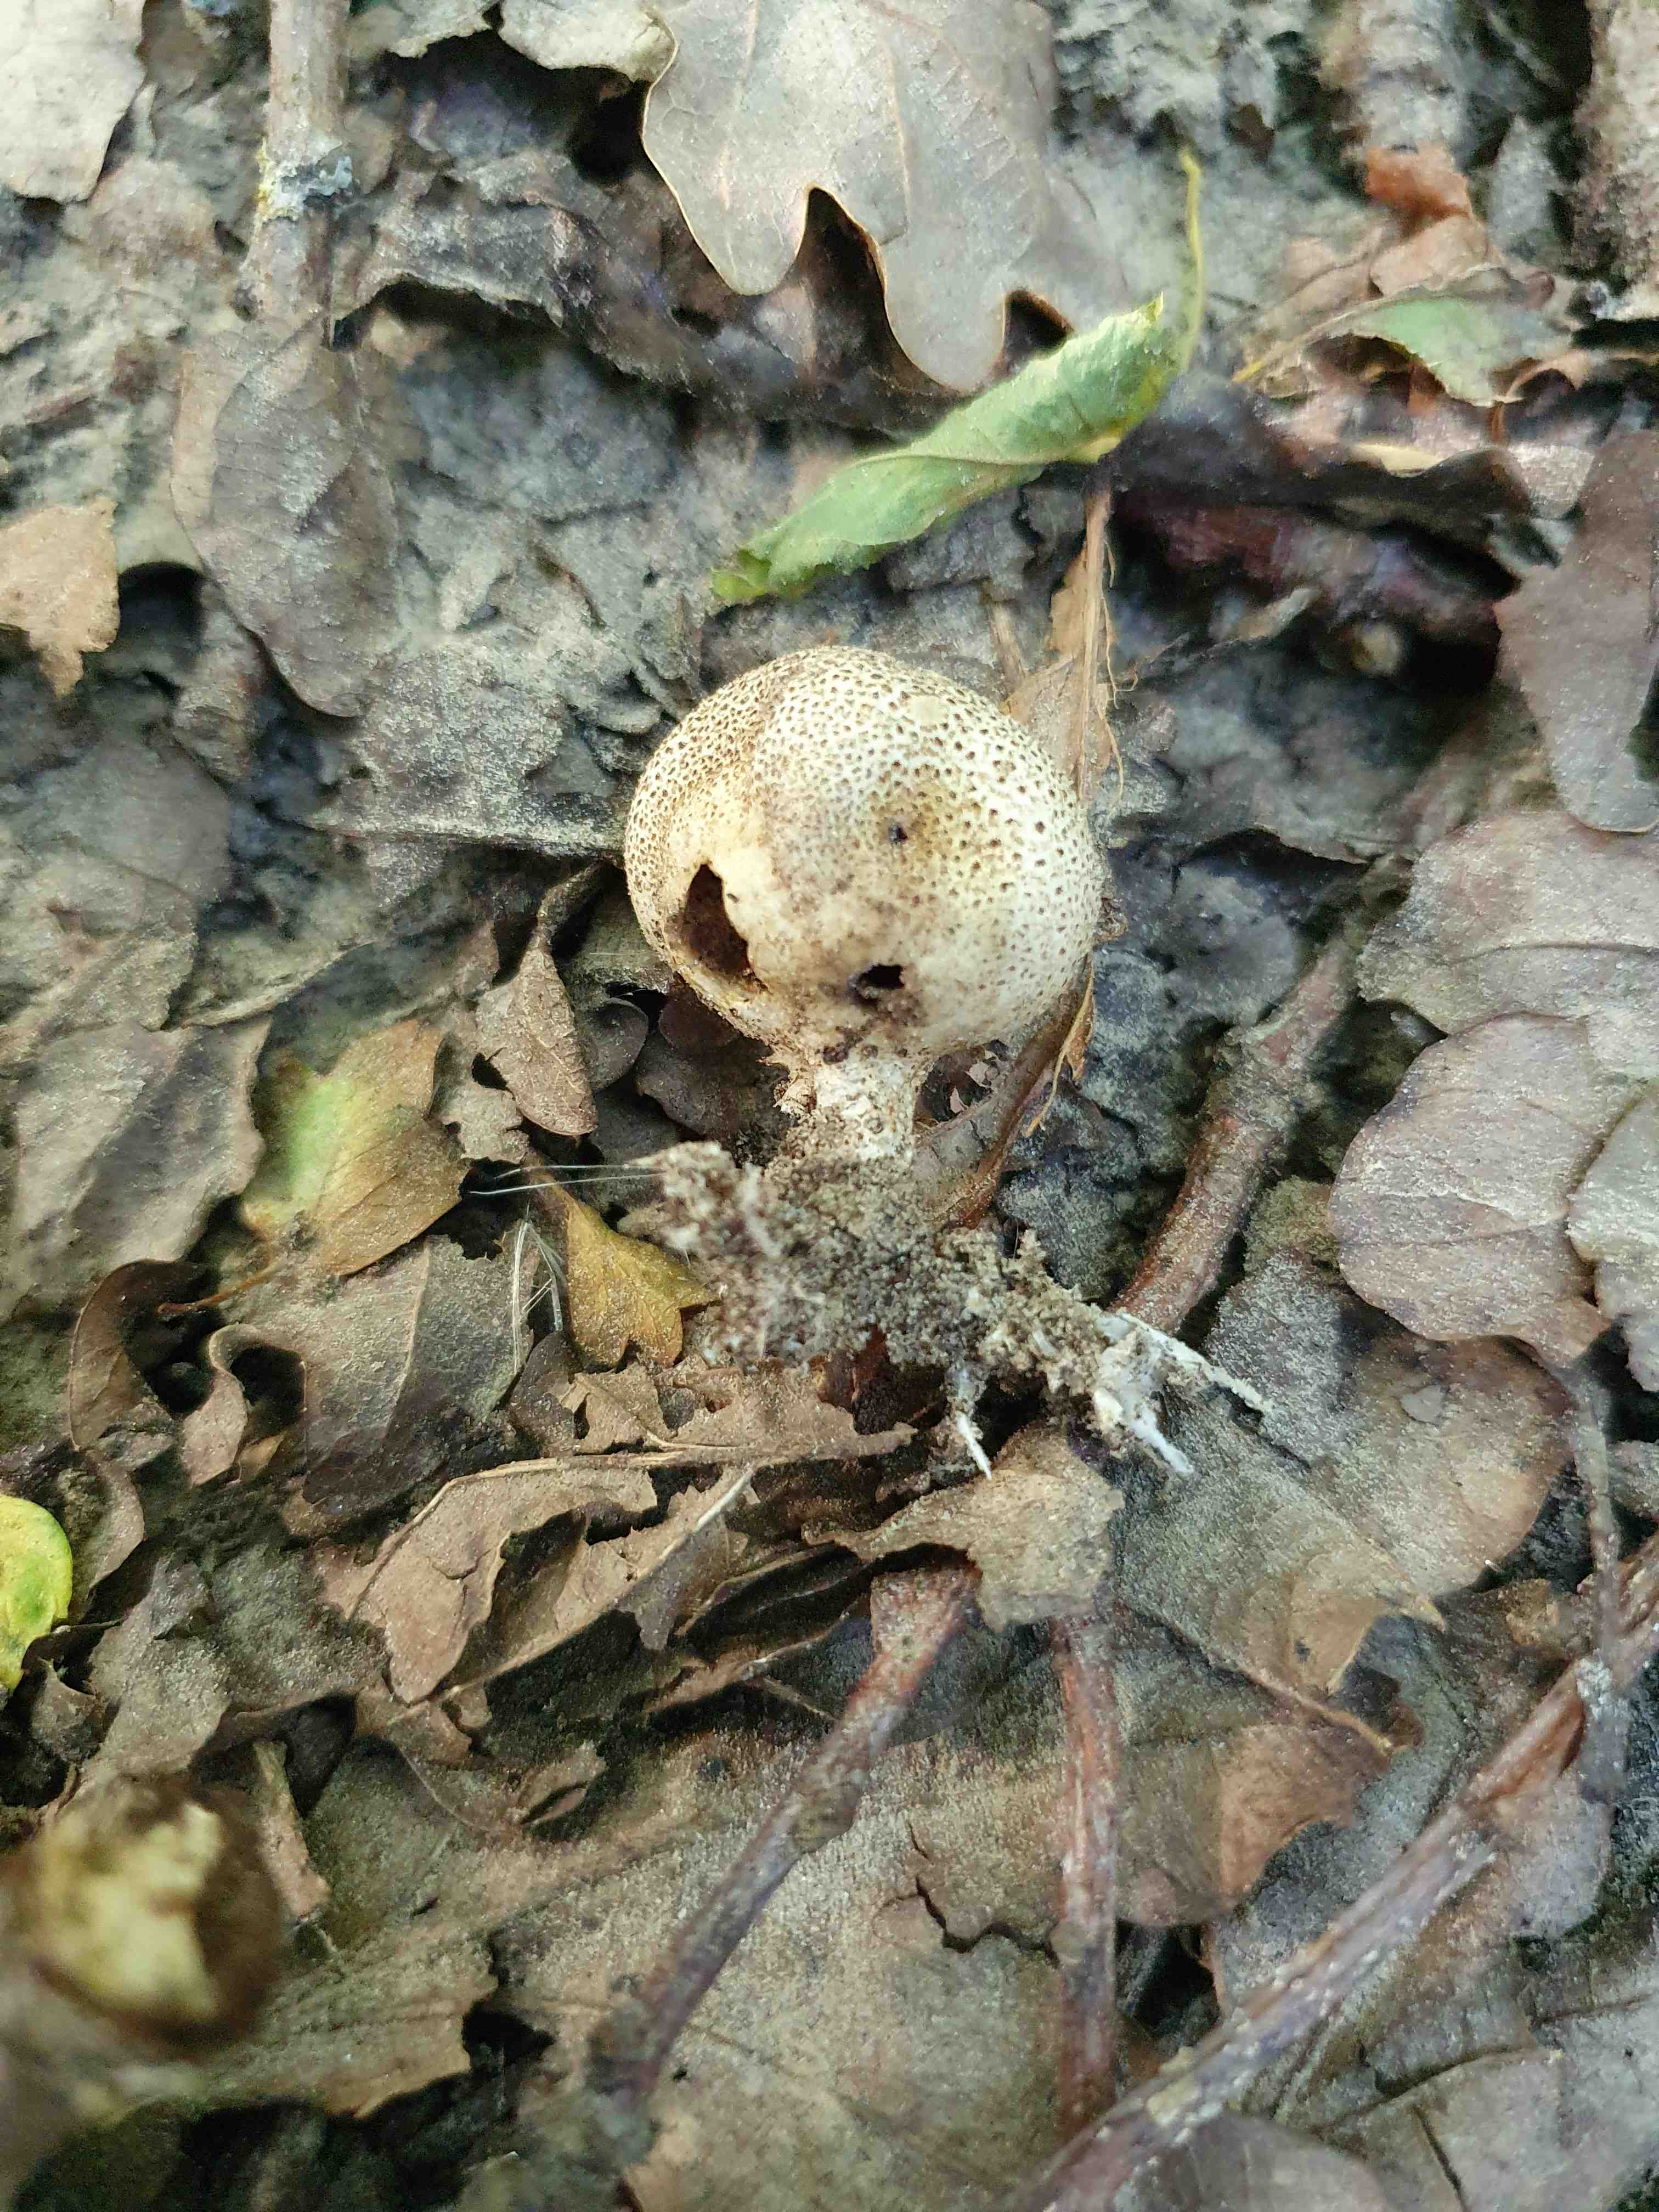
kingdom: Fungi
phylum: Basidiomycota
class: Agaricomycetes
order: Boletales
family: Sclerodermataceae
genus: Scleroderma
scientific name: Scleroderma verrucosum
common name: stilket bruskbold
